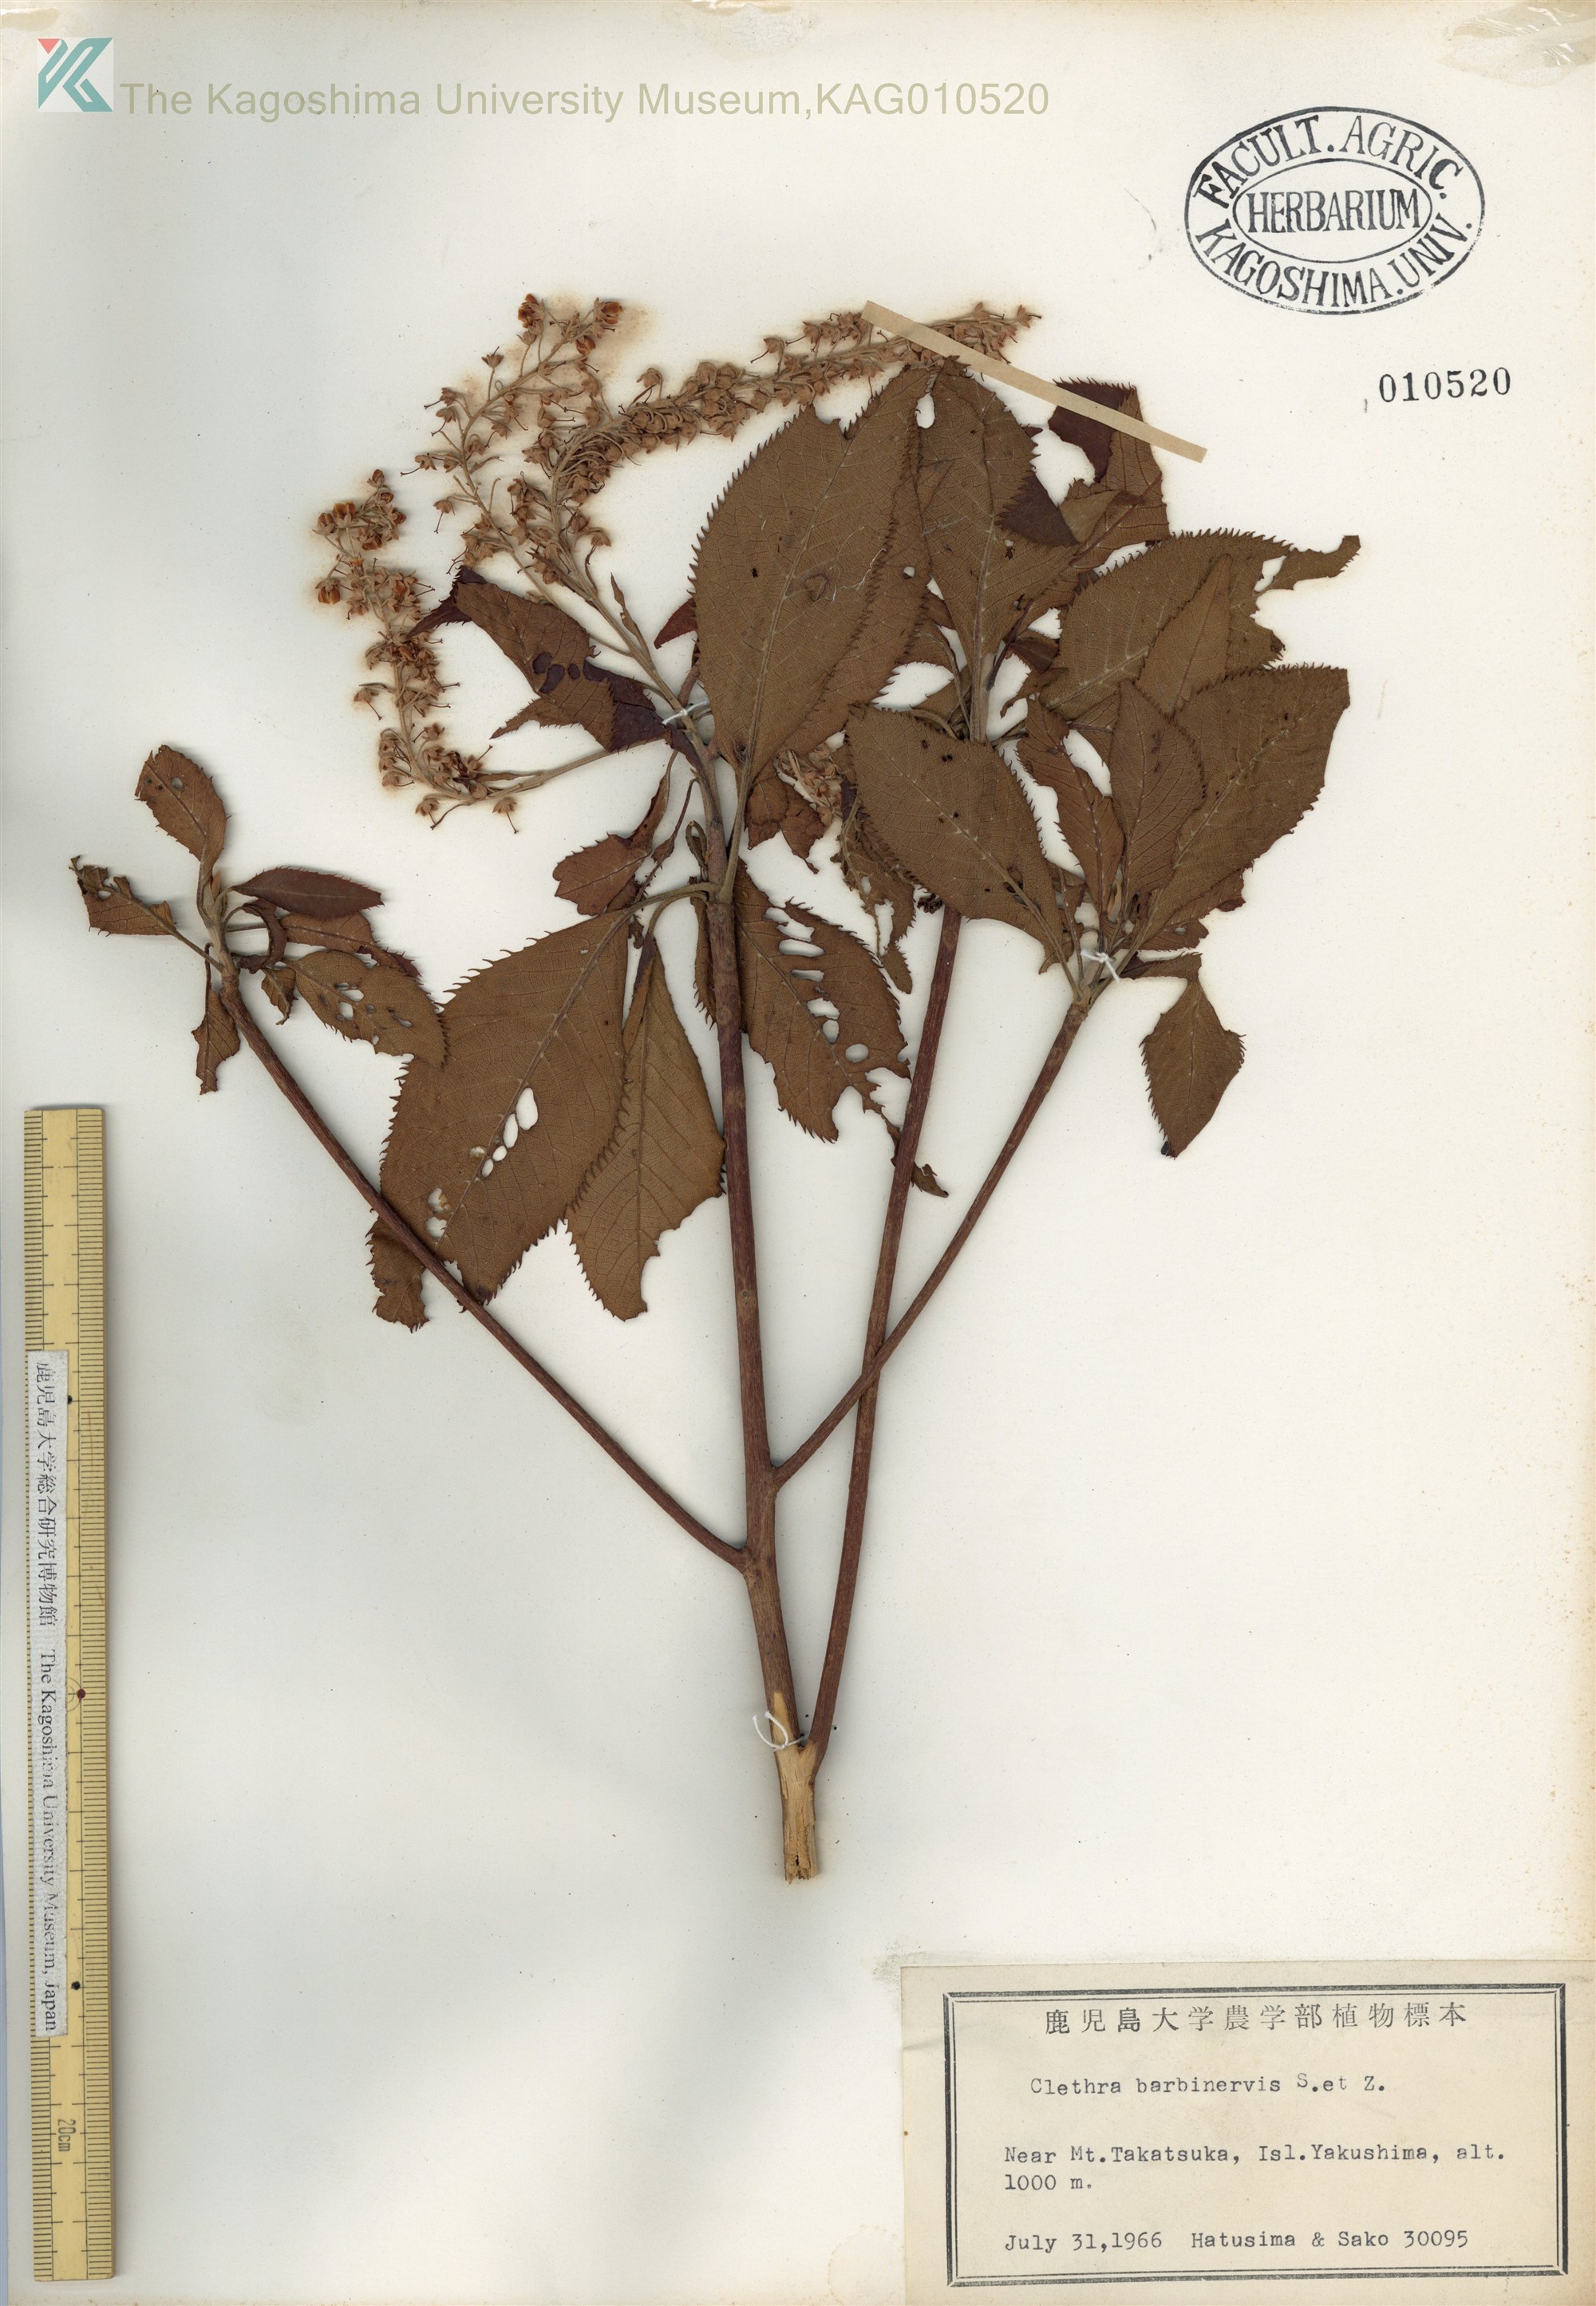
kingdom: Plantae
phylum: Tracheophyta
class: Magnoliopsida
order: Ericales
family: Clethraceae
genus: Clethra
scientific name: Clethra barbinervis
